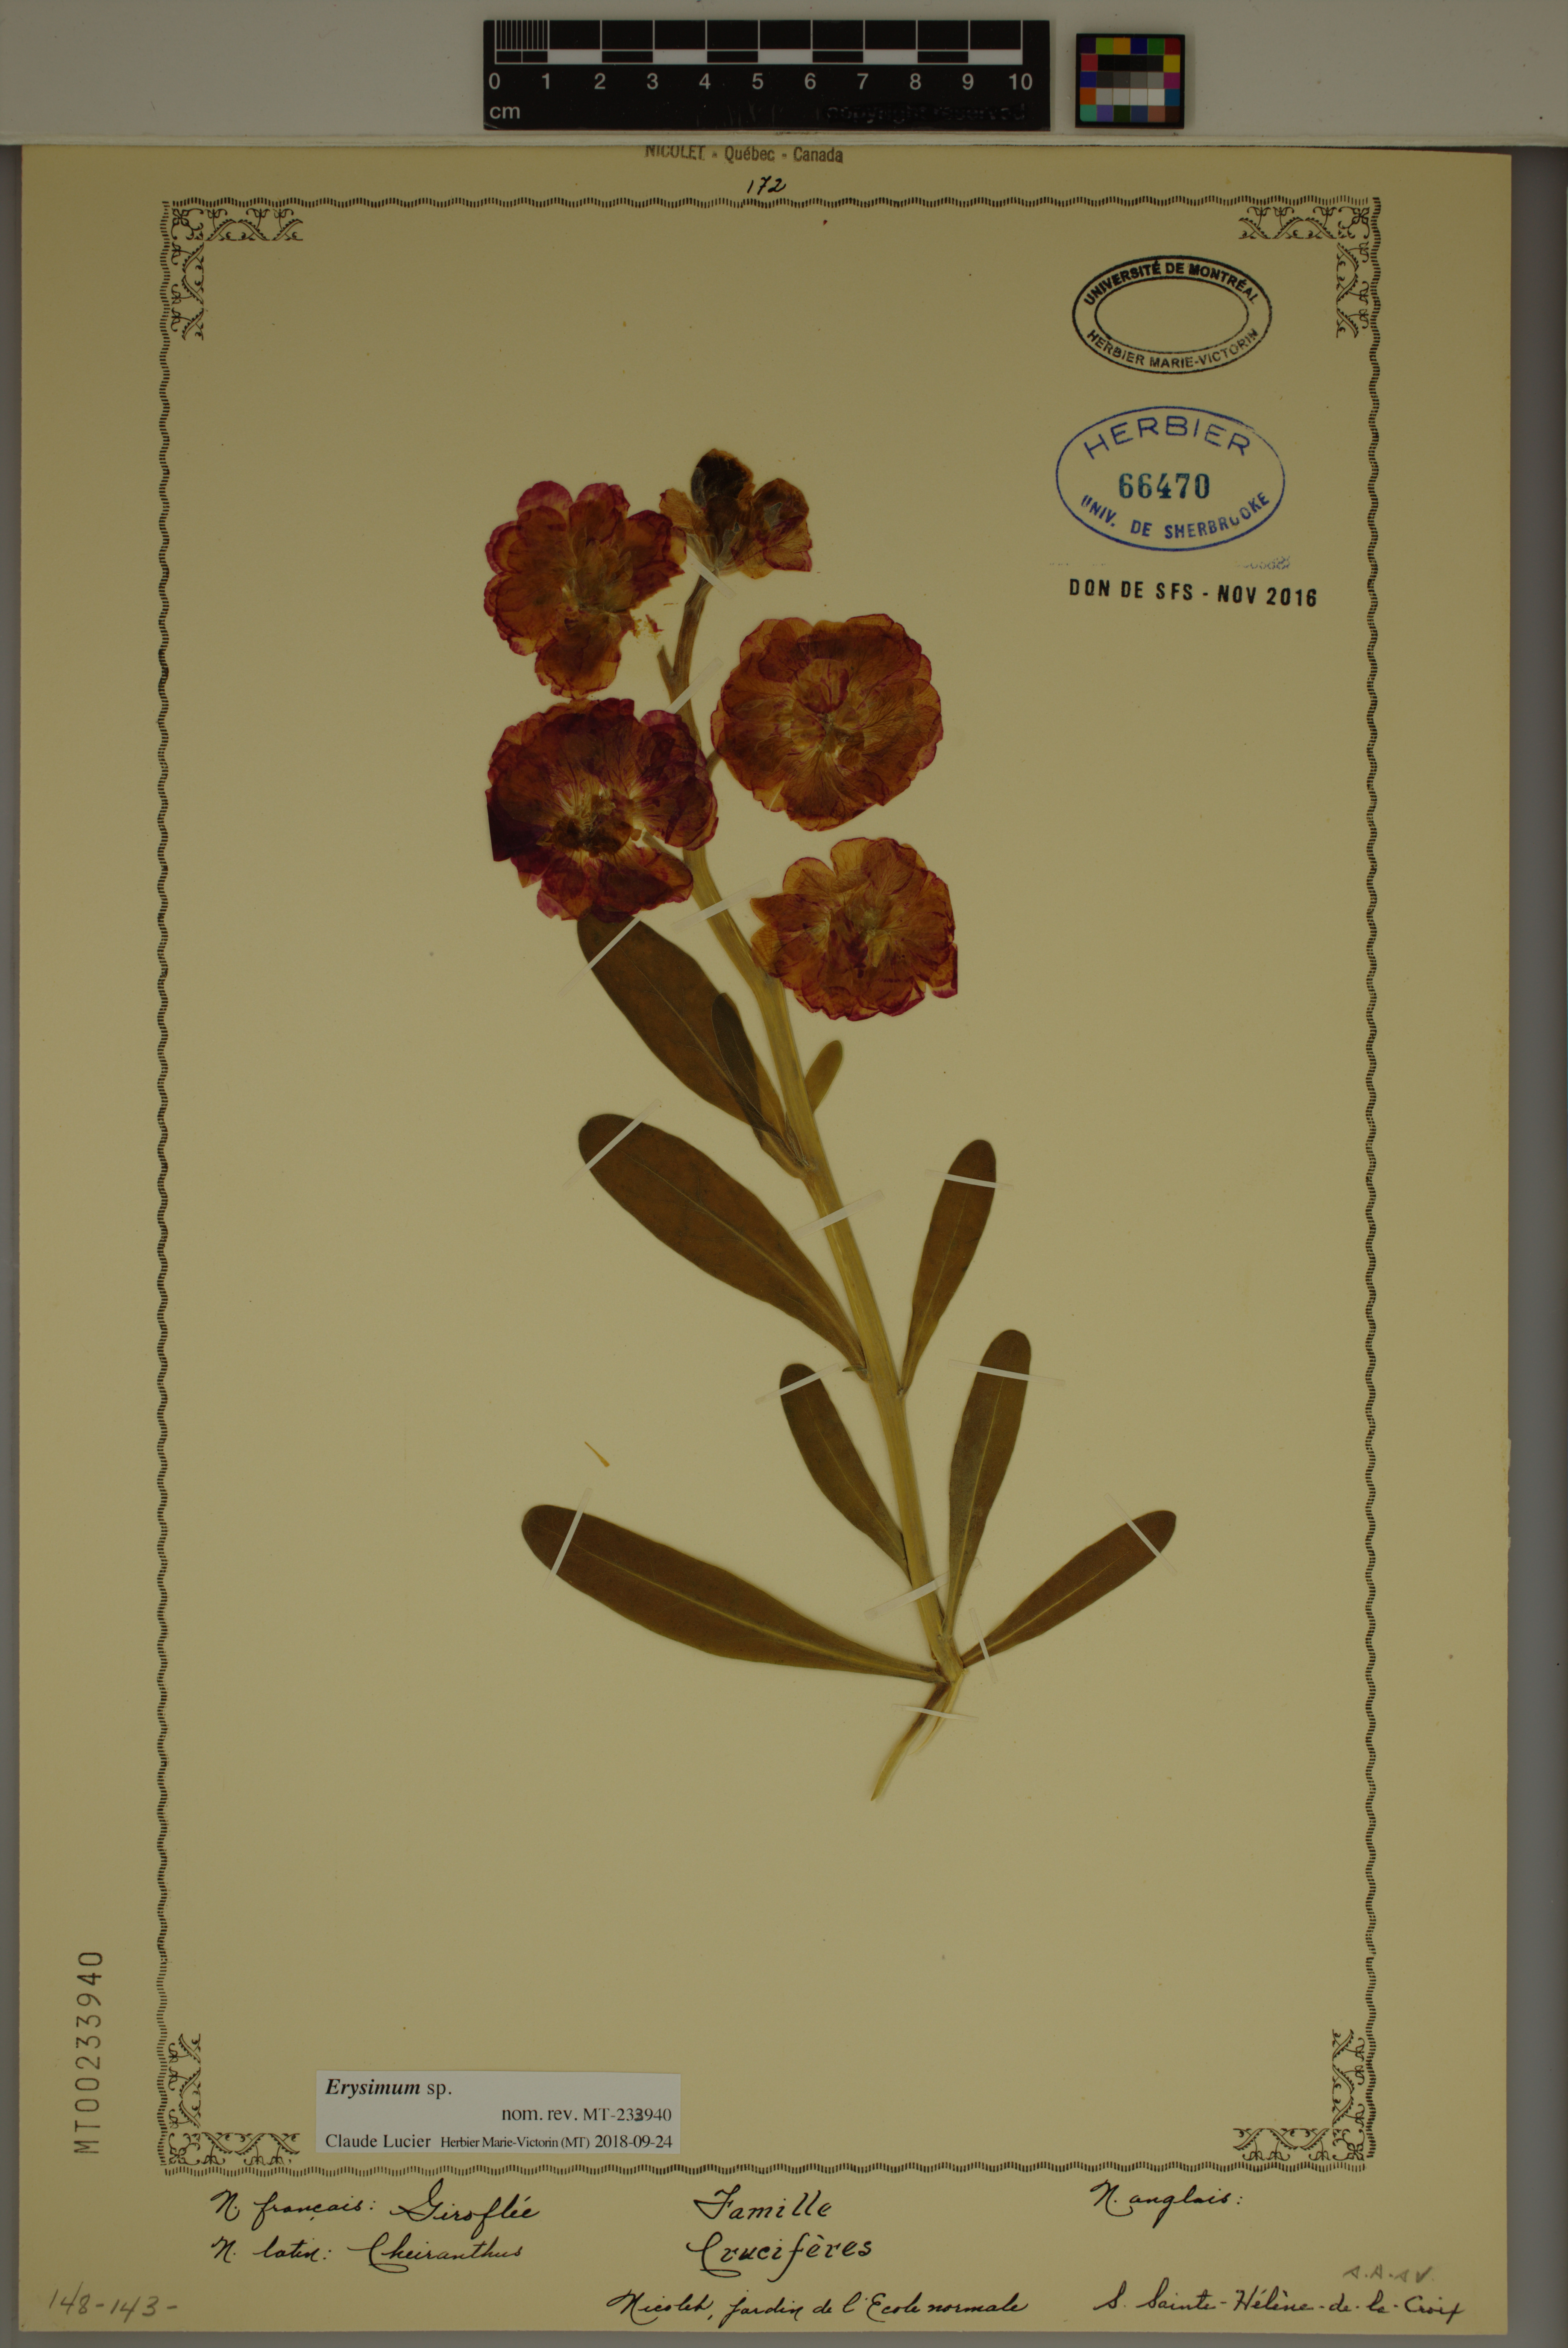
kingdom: Plantae
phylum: Tracheophyta
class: Magnoliopsida
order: Brassicales
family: Brassicaceae
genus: Erysimum
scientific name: Erysimum
